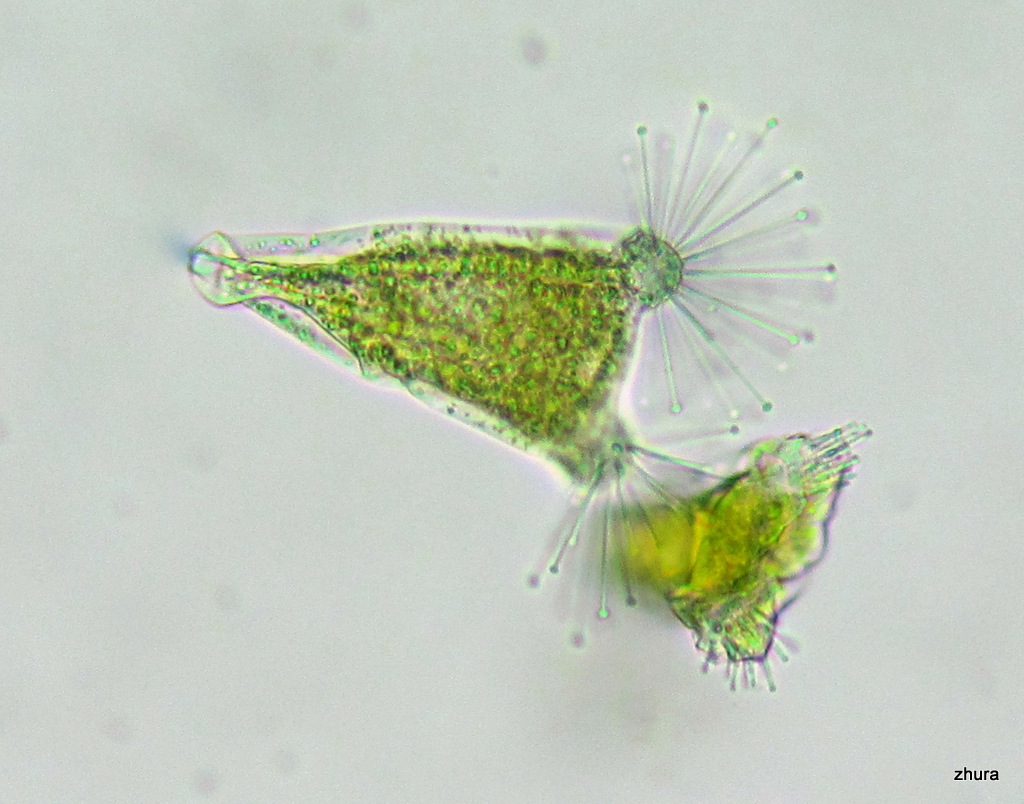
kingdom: Chromista
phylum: Ciliophora
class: Kinetofragminophora
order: Suctorida
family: Acinetidae
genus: Acineta
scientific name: Acineta tuberosa
